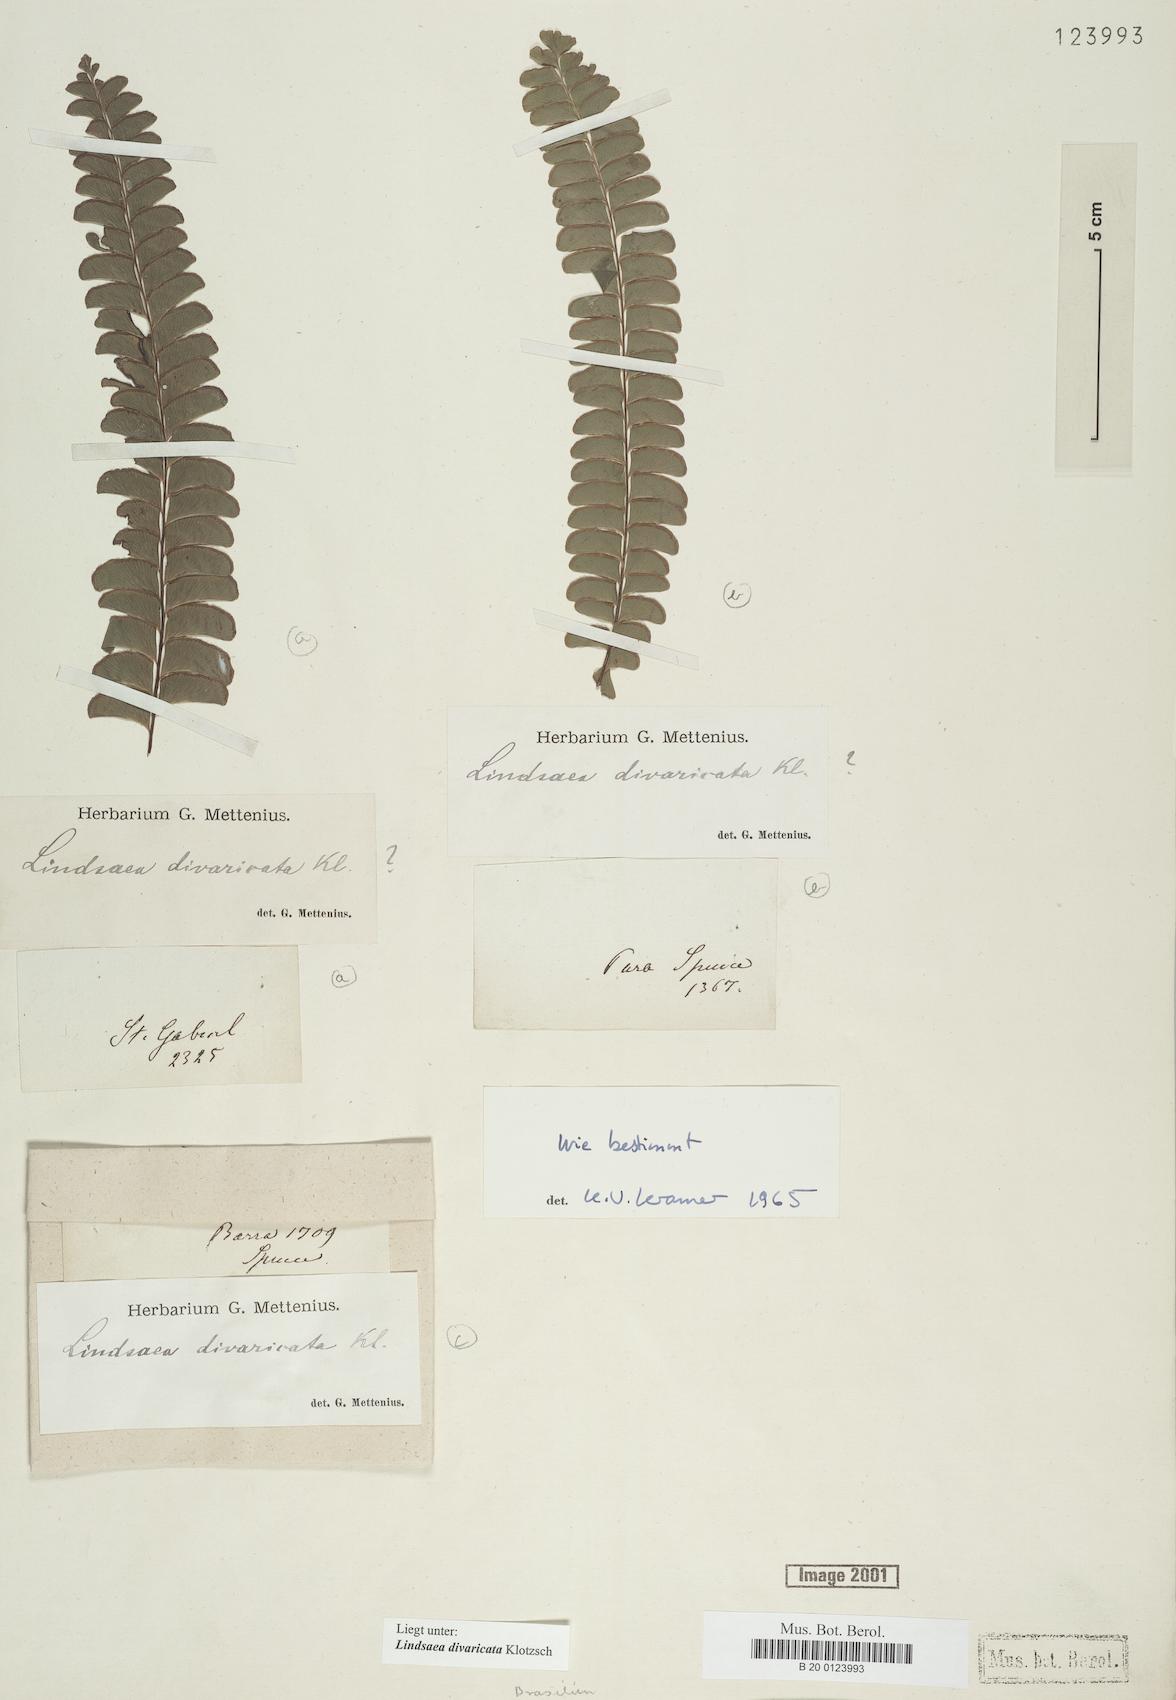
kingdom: Plantae
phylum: Tracheophyta
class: Polypodiopsida
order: Polypodiales
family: Lindsaeaceae
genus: Lindsaea
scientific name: Lindsaea divaricata
